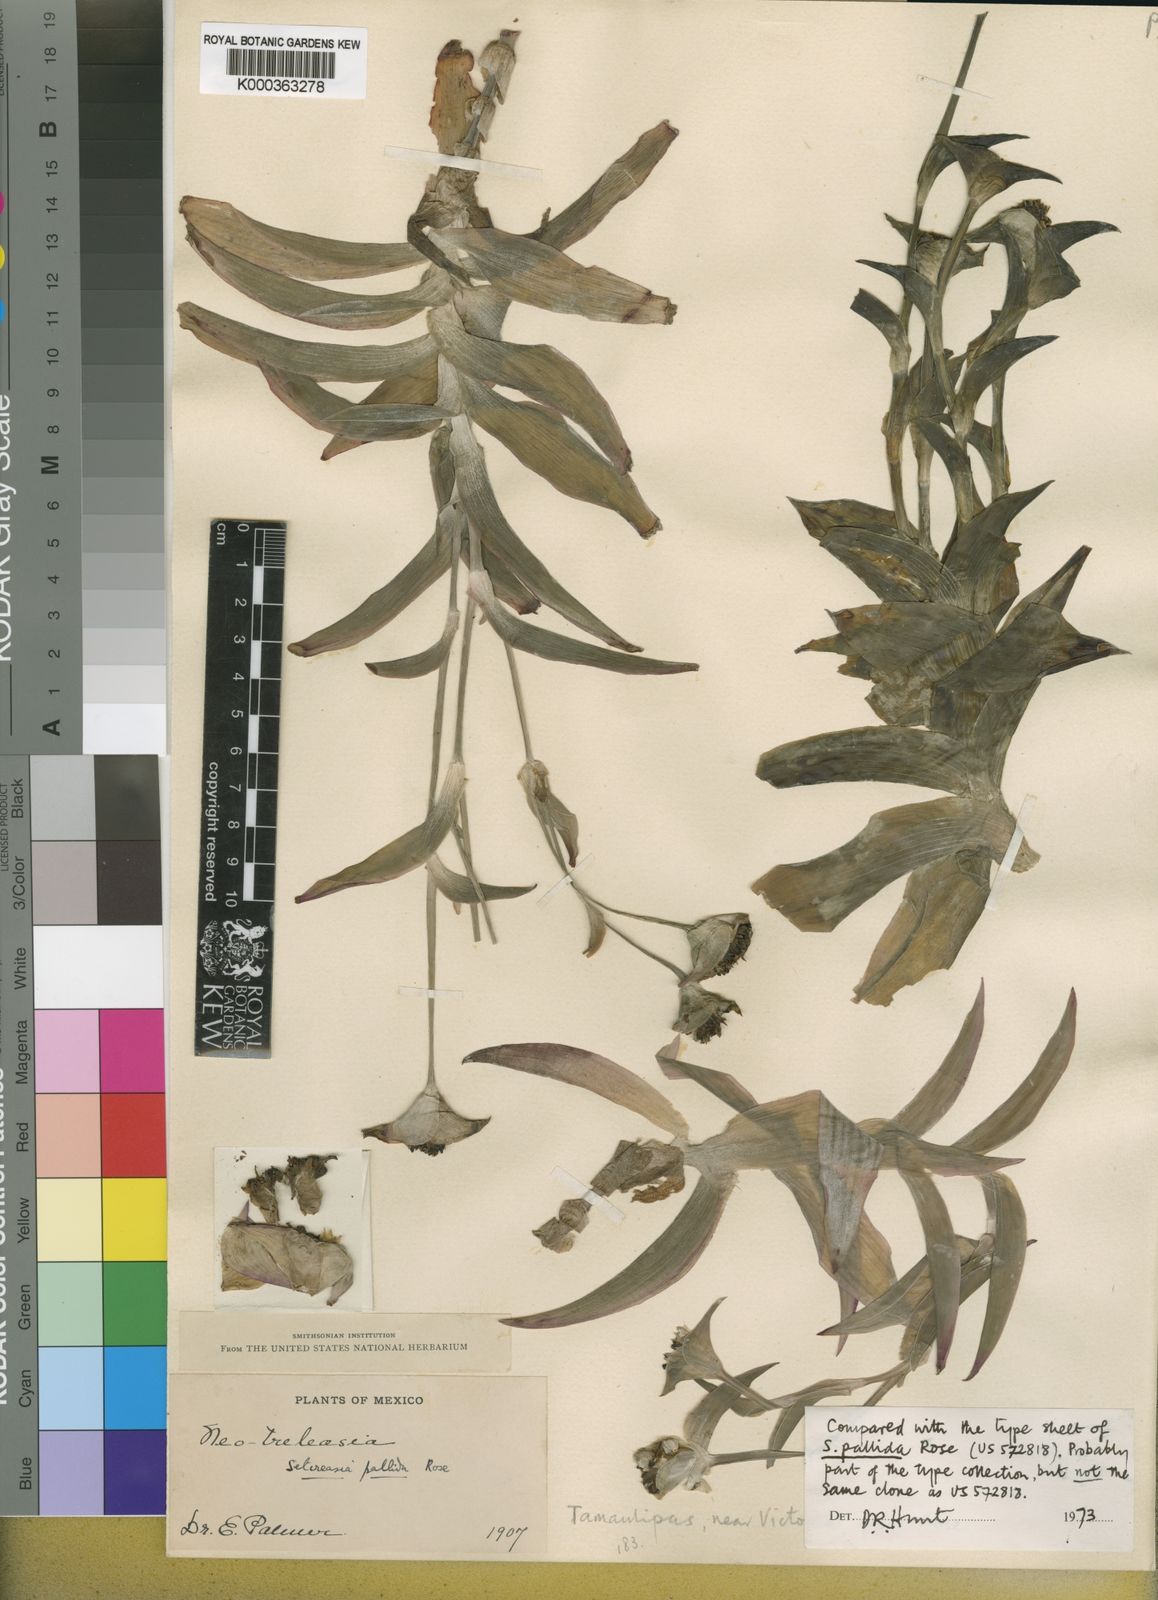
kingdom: Plantae
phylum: Tracheophyta
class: Liliopsida
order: Commelinales
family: Commelinaceae
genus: Tradescantia
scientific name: Tradescantia pallida
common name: Purpleheart
